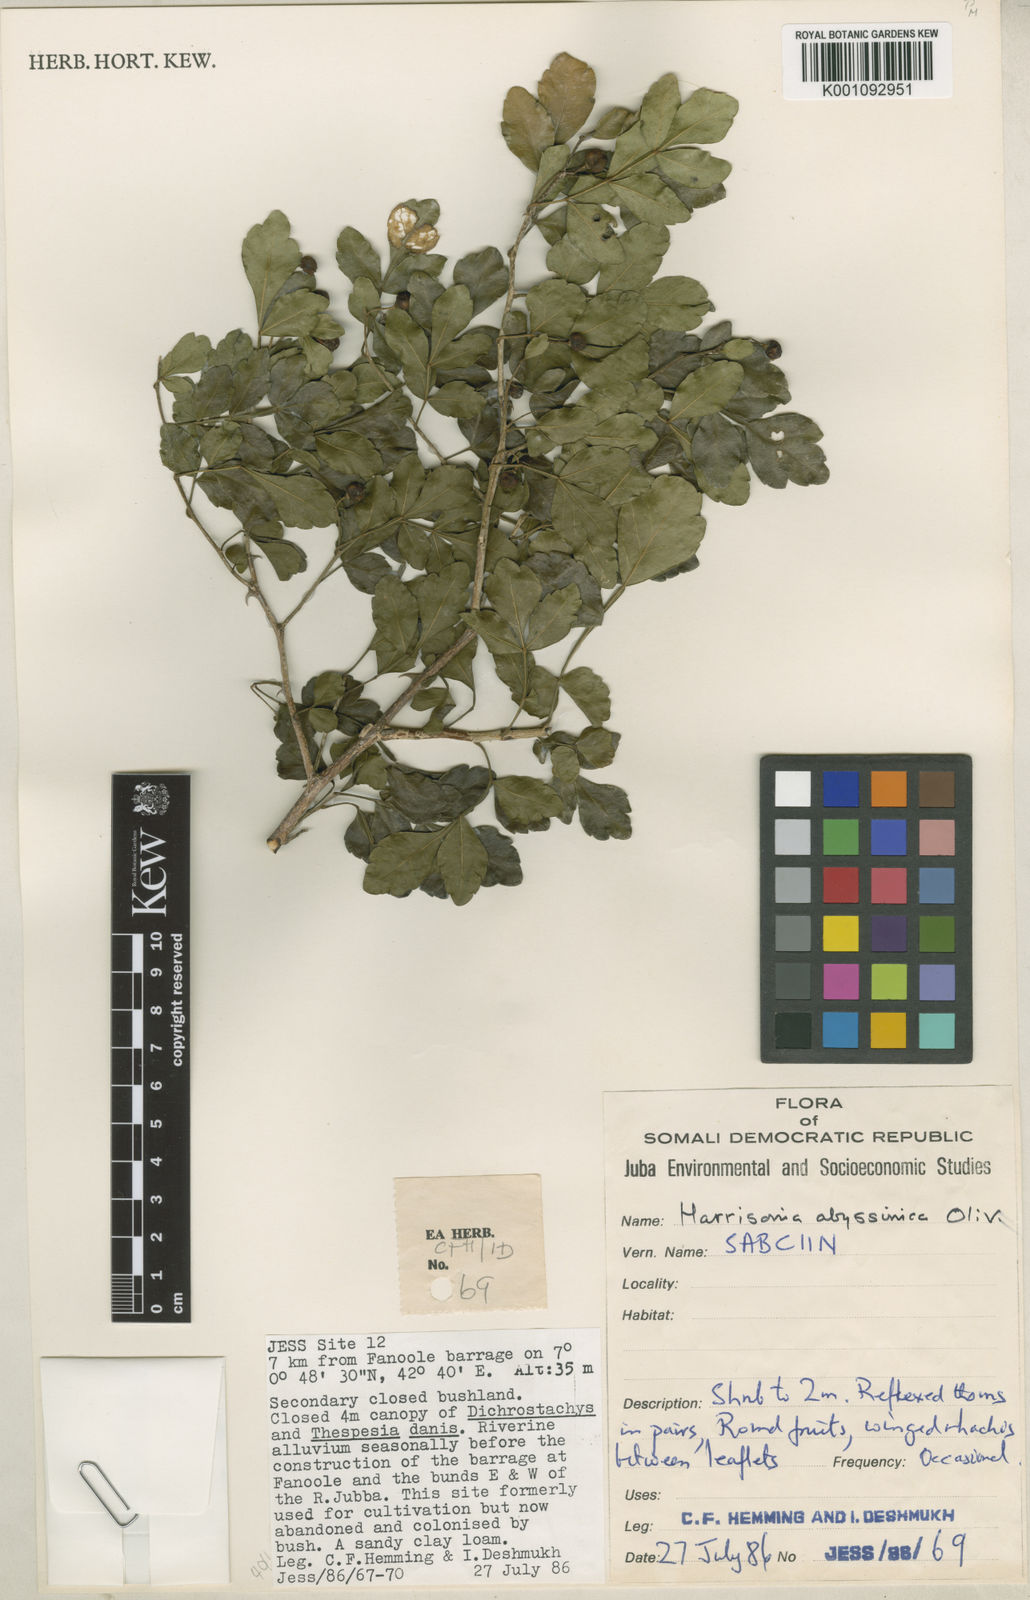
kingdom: Plantae
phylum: Tracheophyta
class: Magnoliopsida
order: Sapindales
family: Rutaceae
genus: Harrisonia
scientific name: Harrisonia abyssinica
